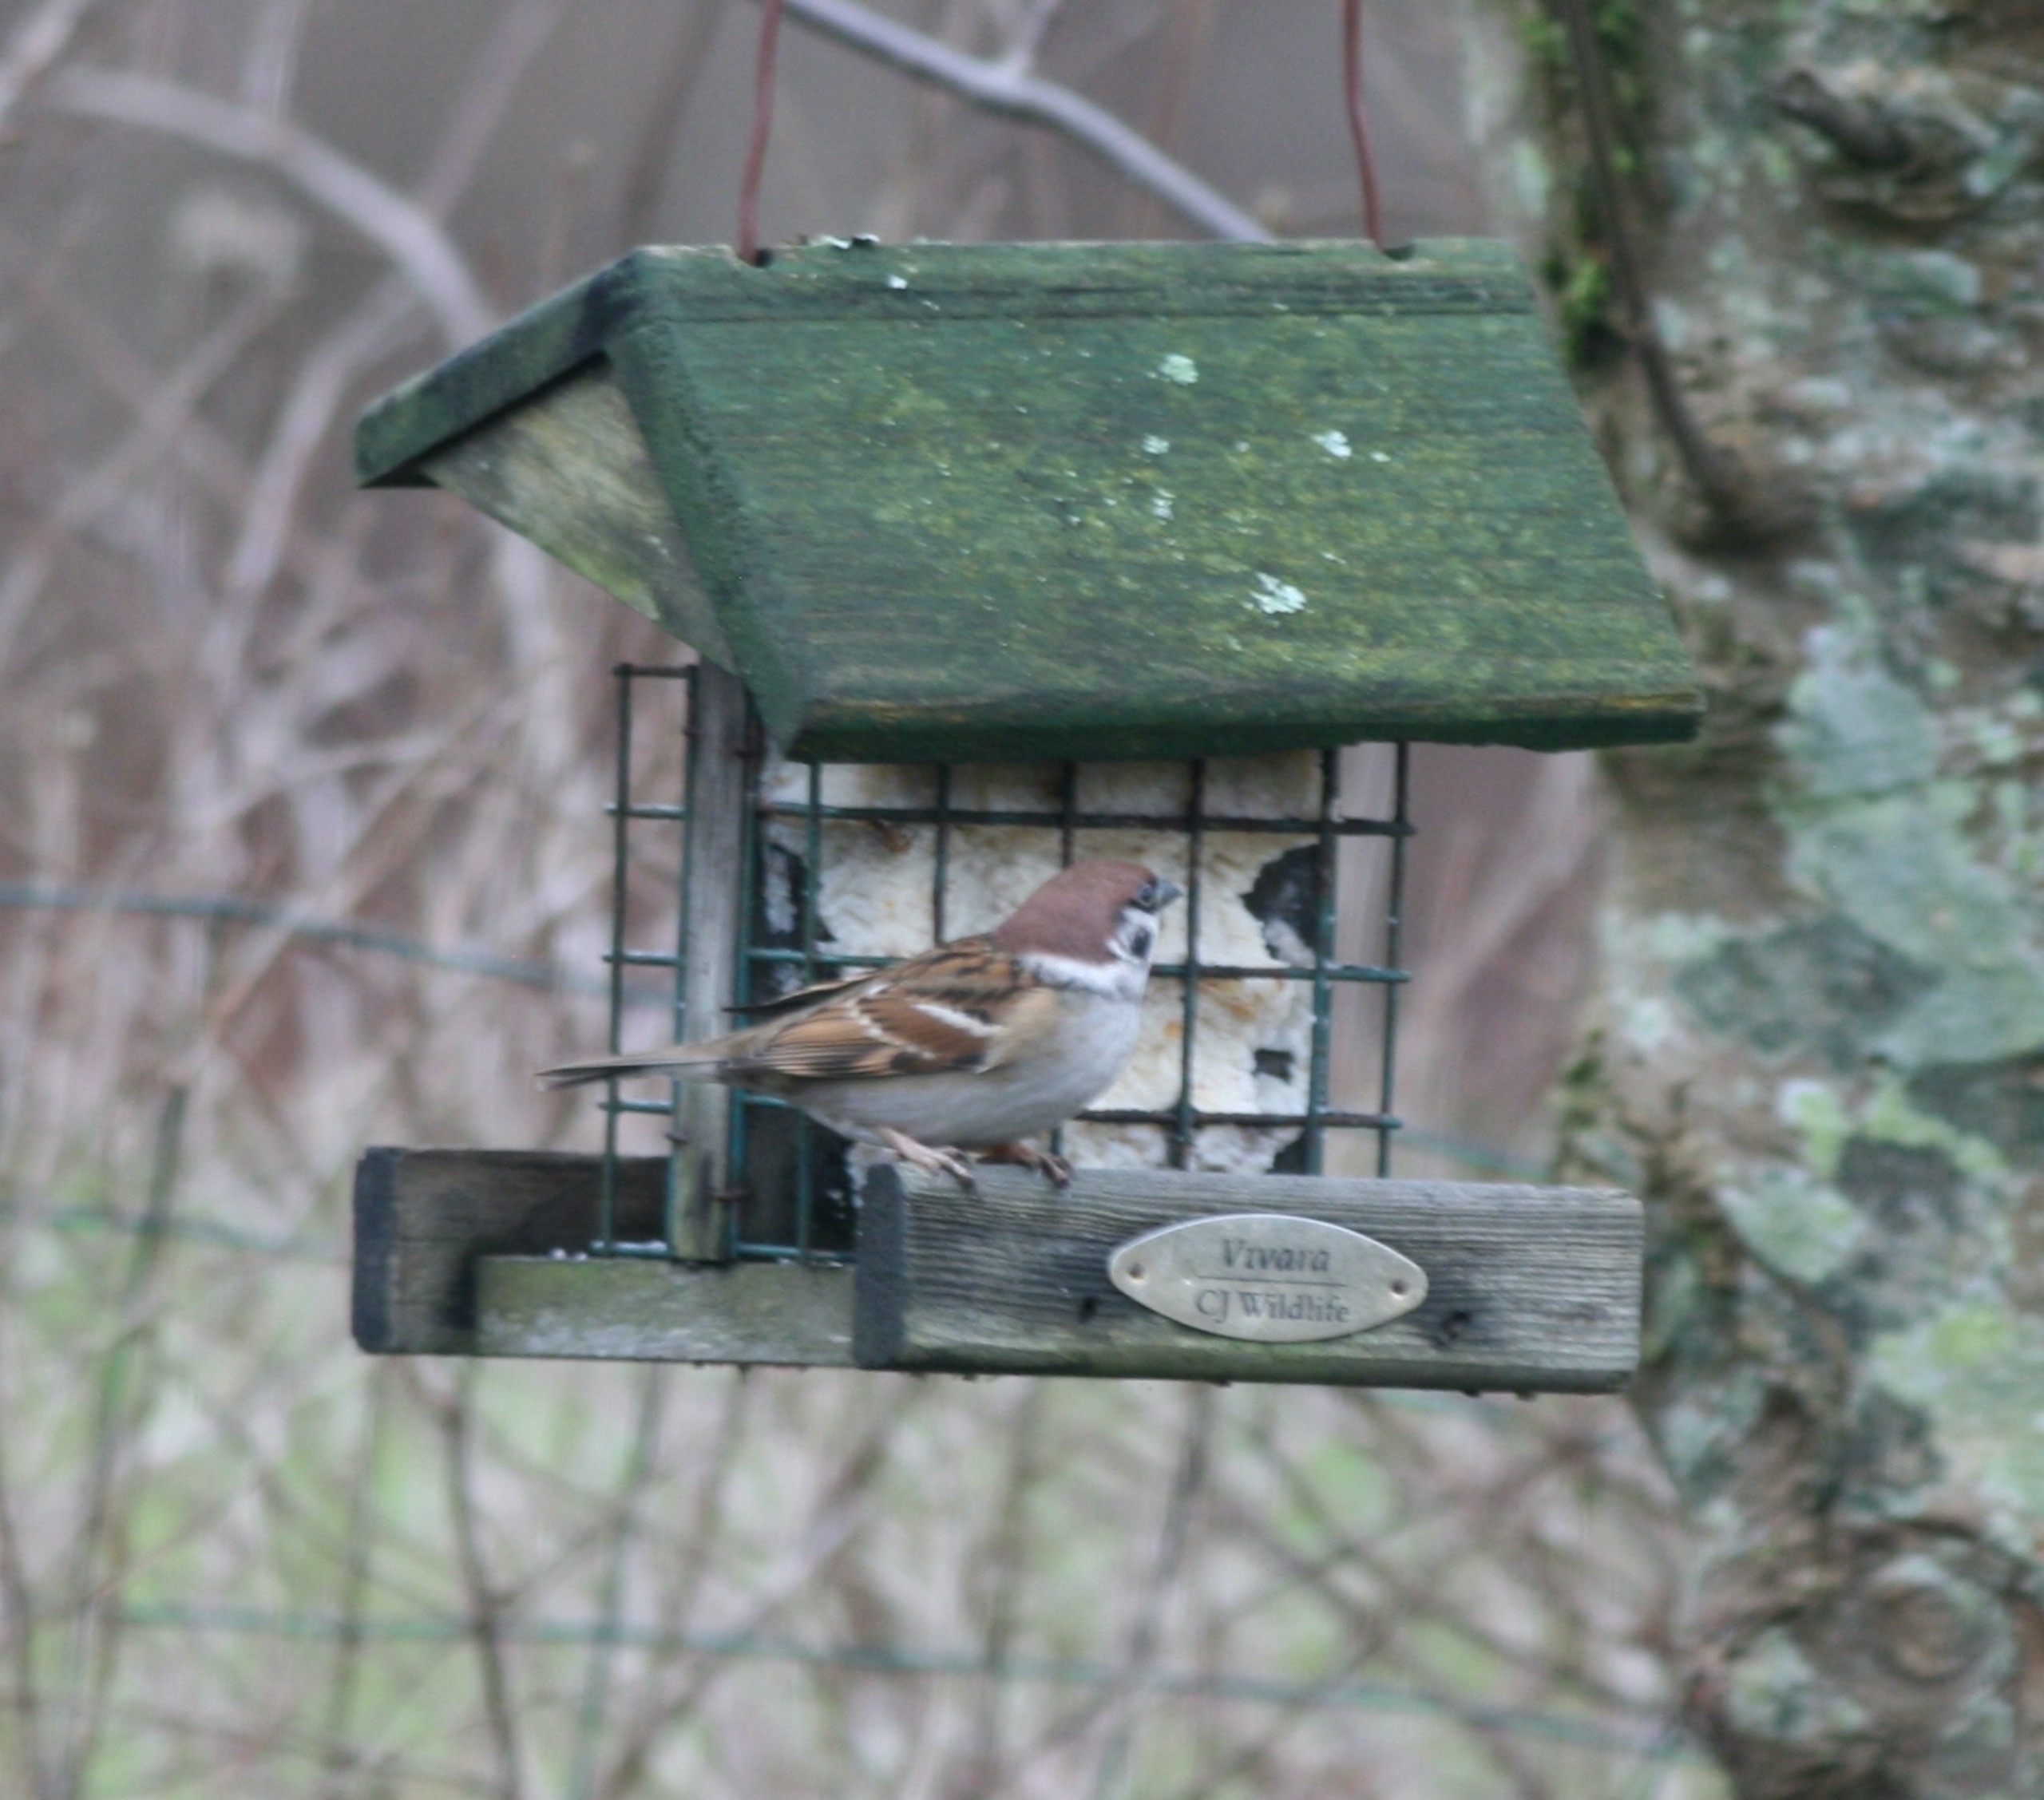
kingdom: Animalia
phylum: Chordata
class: Aves
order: Passeriformes
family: Passeridae
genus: Passer
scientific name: Passer montanus
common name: Skovspurv
